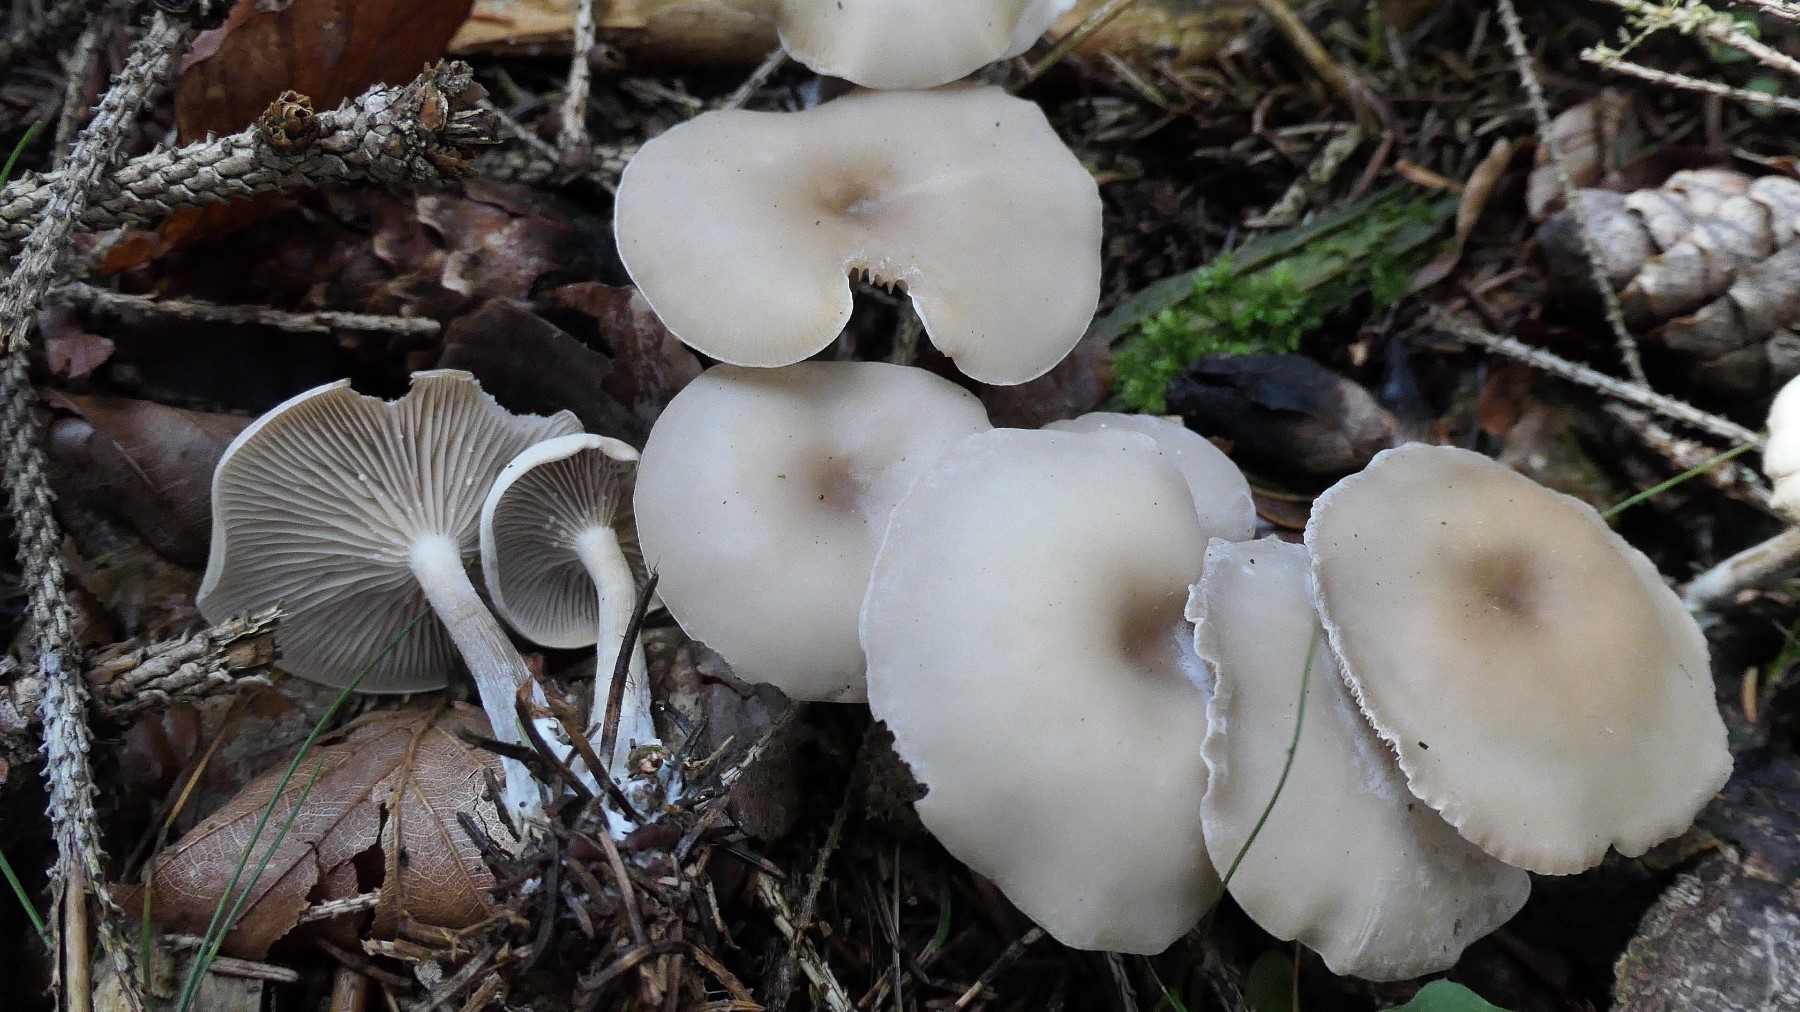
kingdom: Fungi
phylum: Basidiomycota
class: Agaricomycetes
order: Agaricales
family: Tricholomataceae
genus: Clitocybe
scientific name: Clitocybe metachroa
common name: grå tragthat
